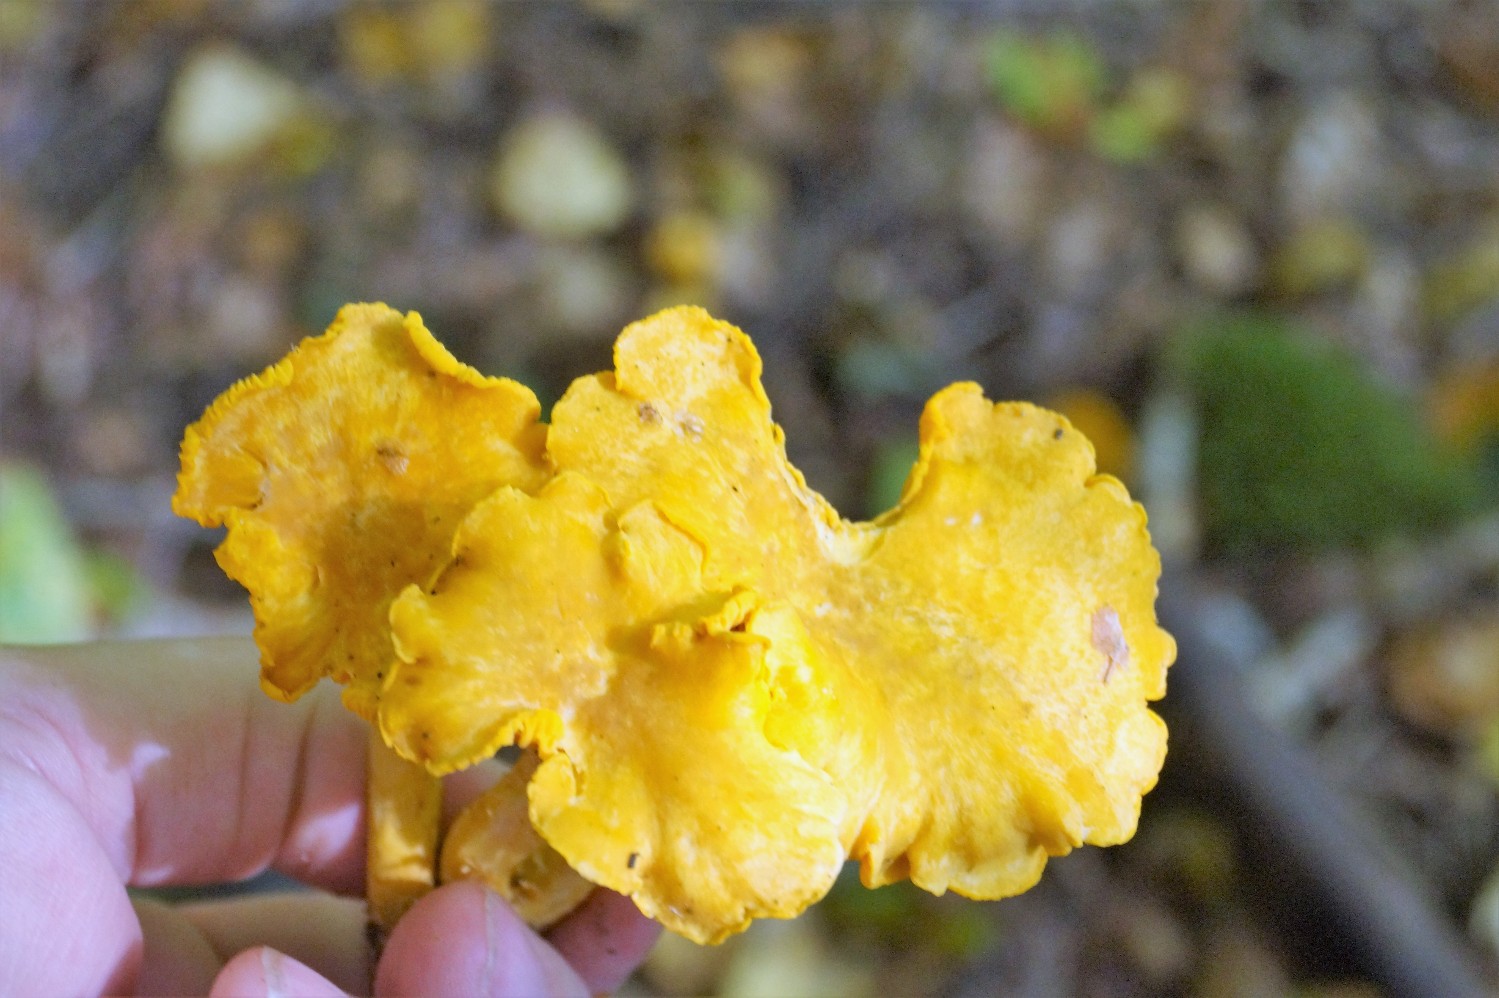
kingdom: Fungi
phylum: Basidiomycota
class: Agaricomycetes
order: Cantharellales
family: Hydnaceae
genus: Cantharellus
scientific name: Cantharellus cibarius
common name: almindelig kantarel
